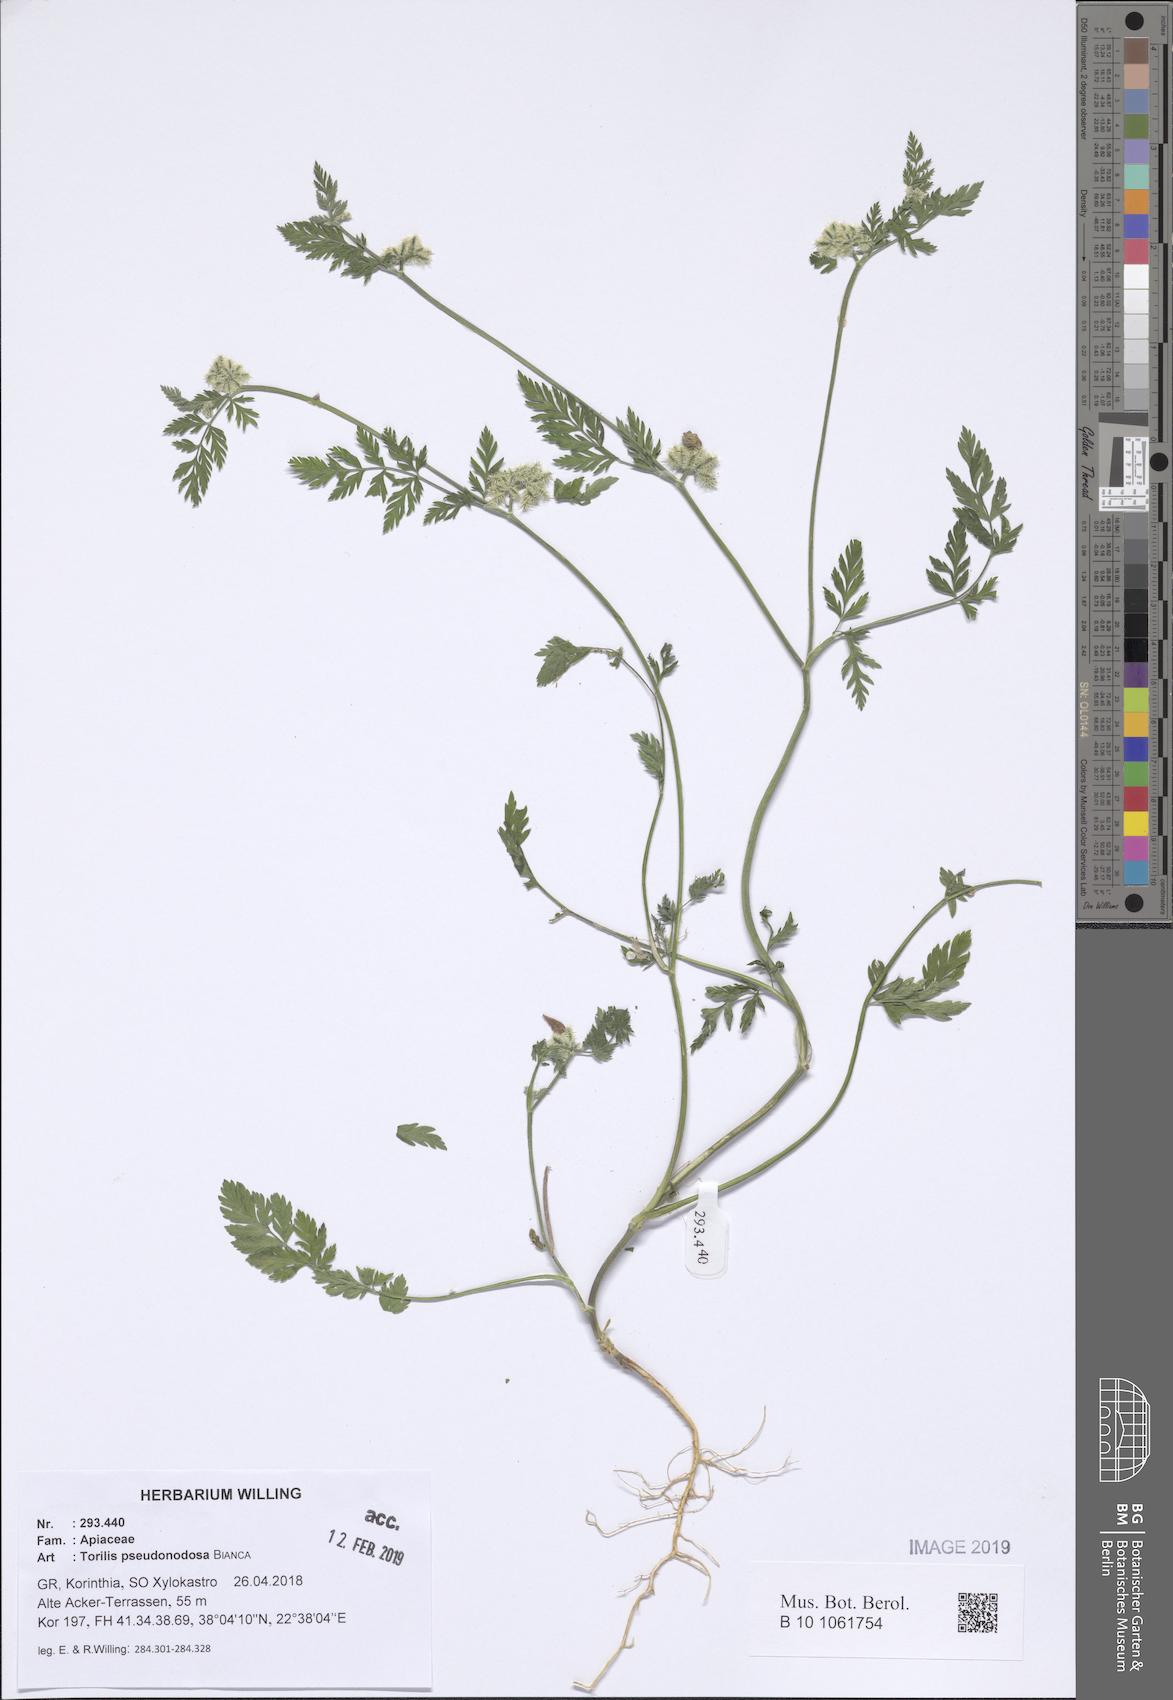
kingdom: Plantae
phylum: Tracheophyta
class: Magnoliopsida
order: Apiales
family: Apiaceae
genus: Torilis
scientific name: Torilis pseudonodosa
